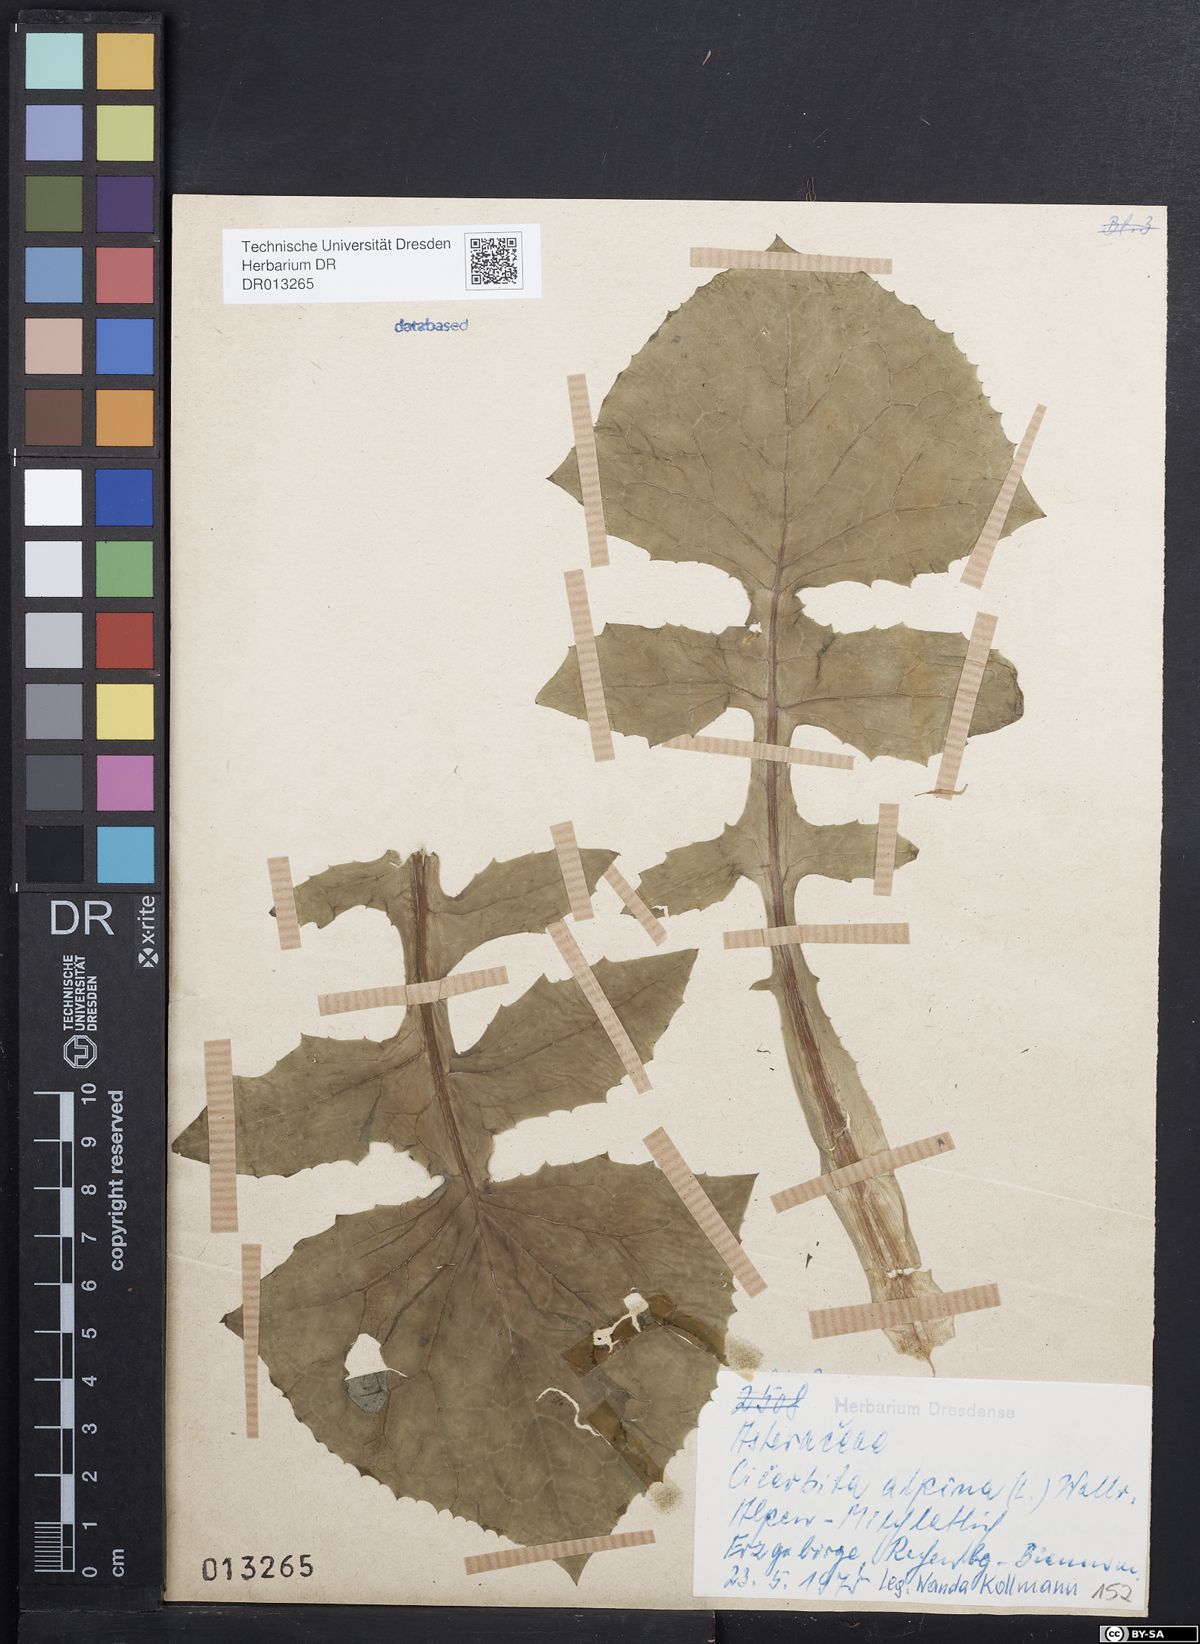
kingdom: Plantae
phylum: Tracheophyta
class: Magnoliopsida
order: Asterales
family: Asteraceae
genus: Cicerbita
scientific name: Cicerbita alpina
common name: Alpine blue-sow-thistle
